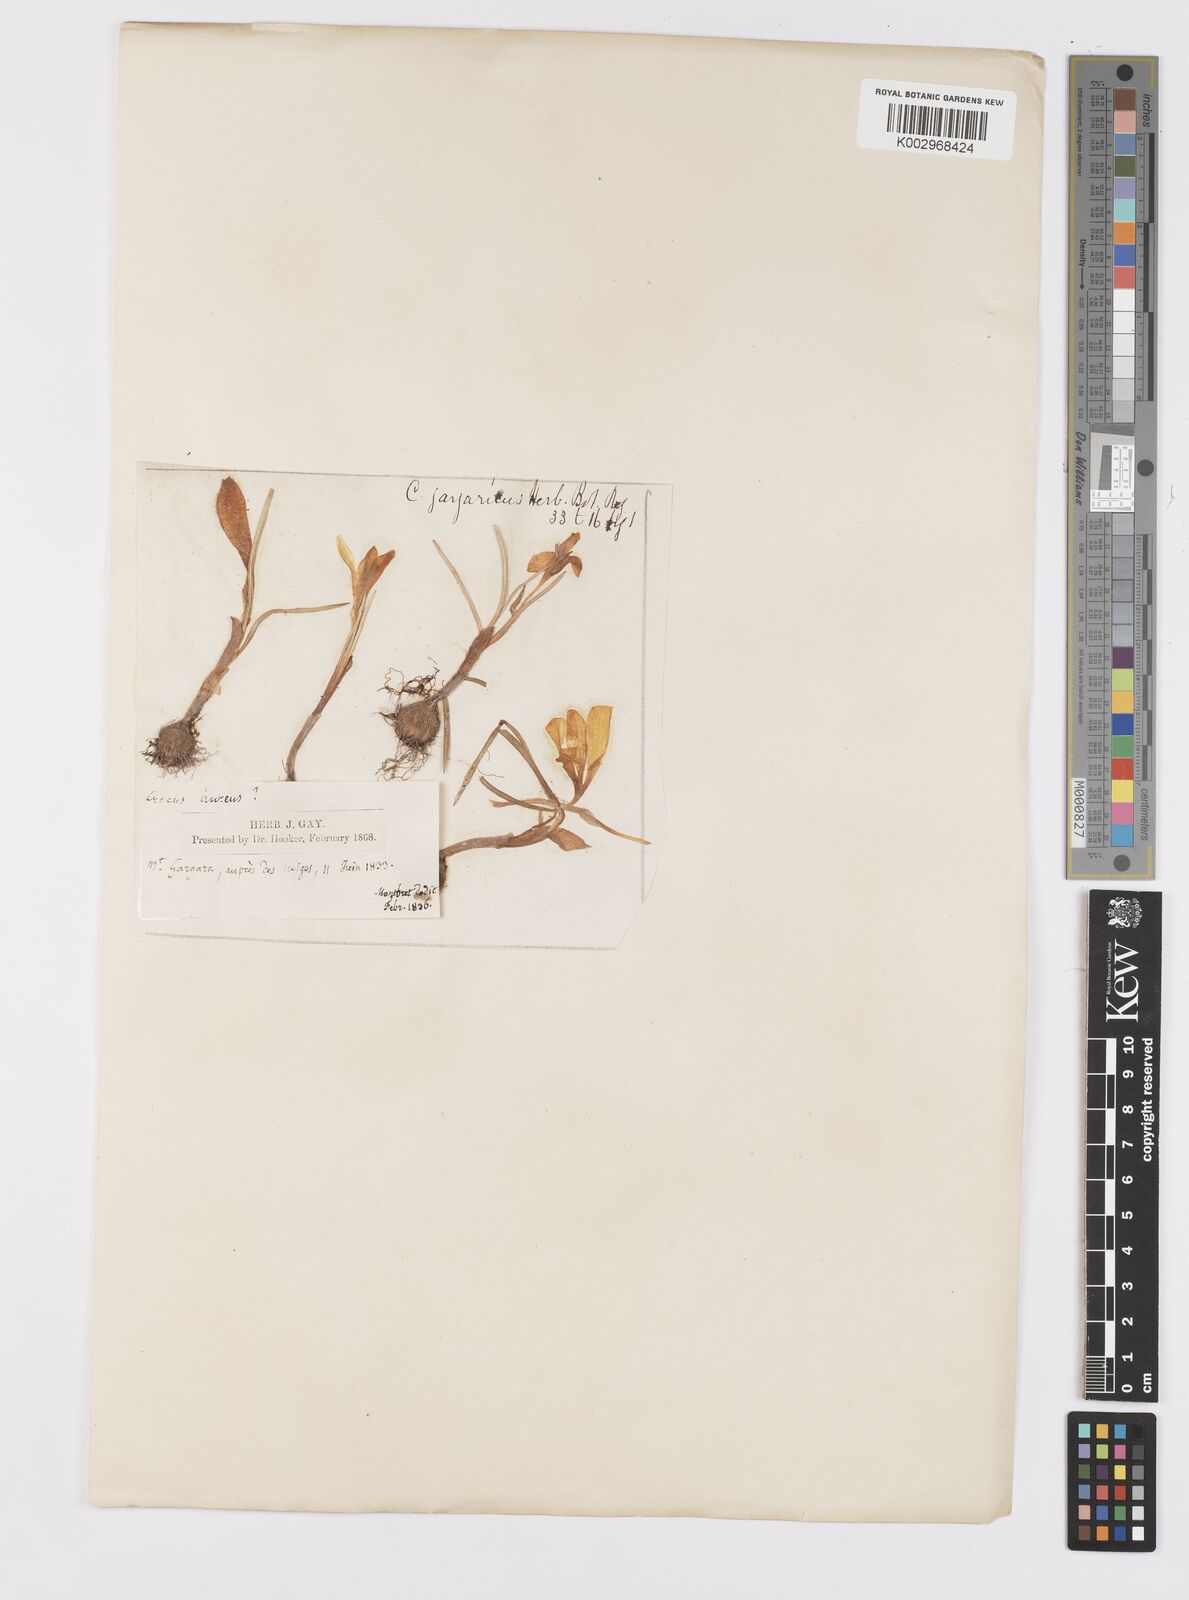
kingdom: Plantae
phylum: Tracheophyta
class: Liliopsida
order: Asparagales
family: Iridaceae
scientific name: Iridaceae
